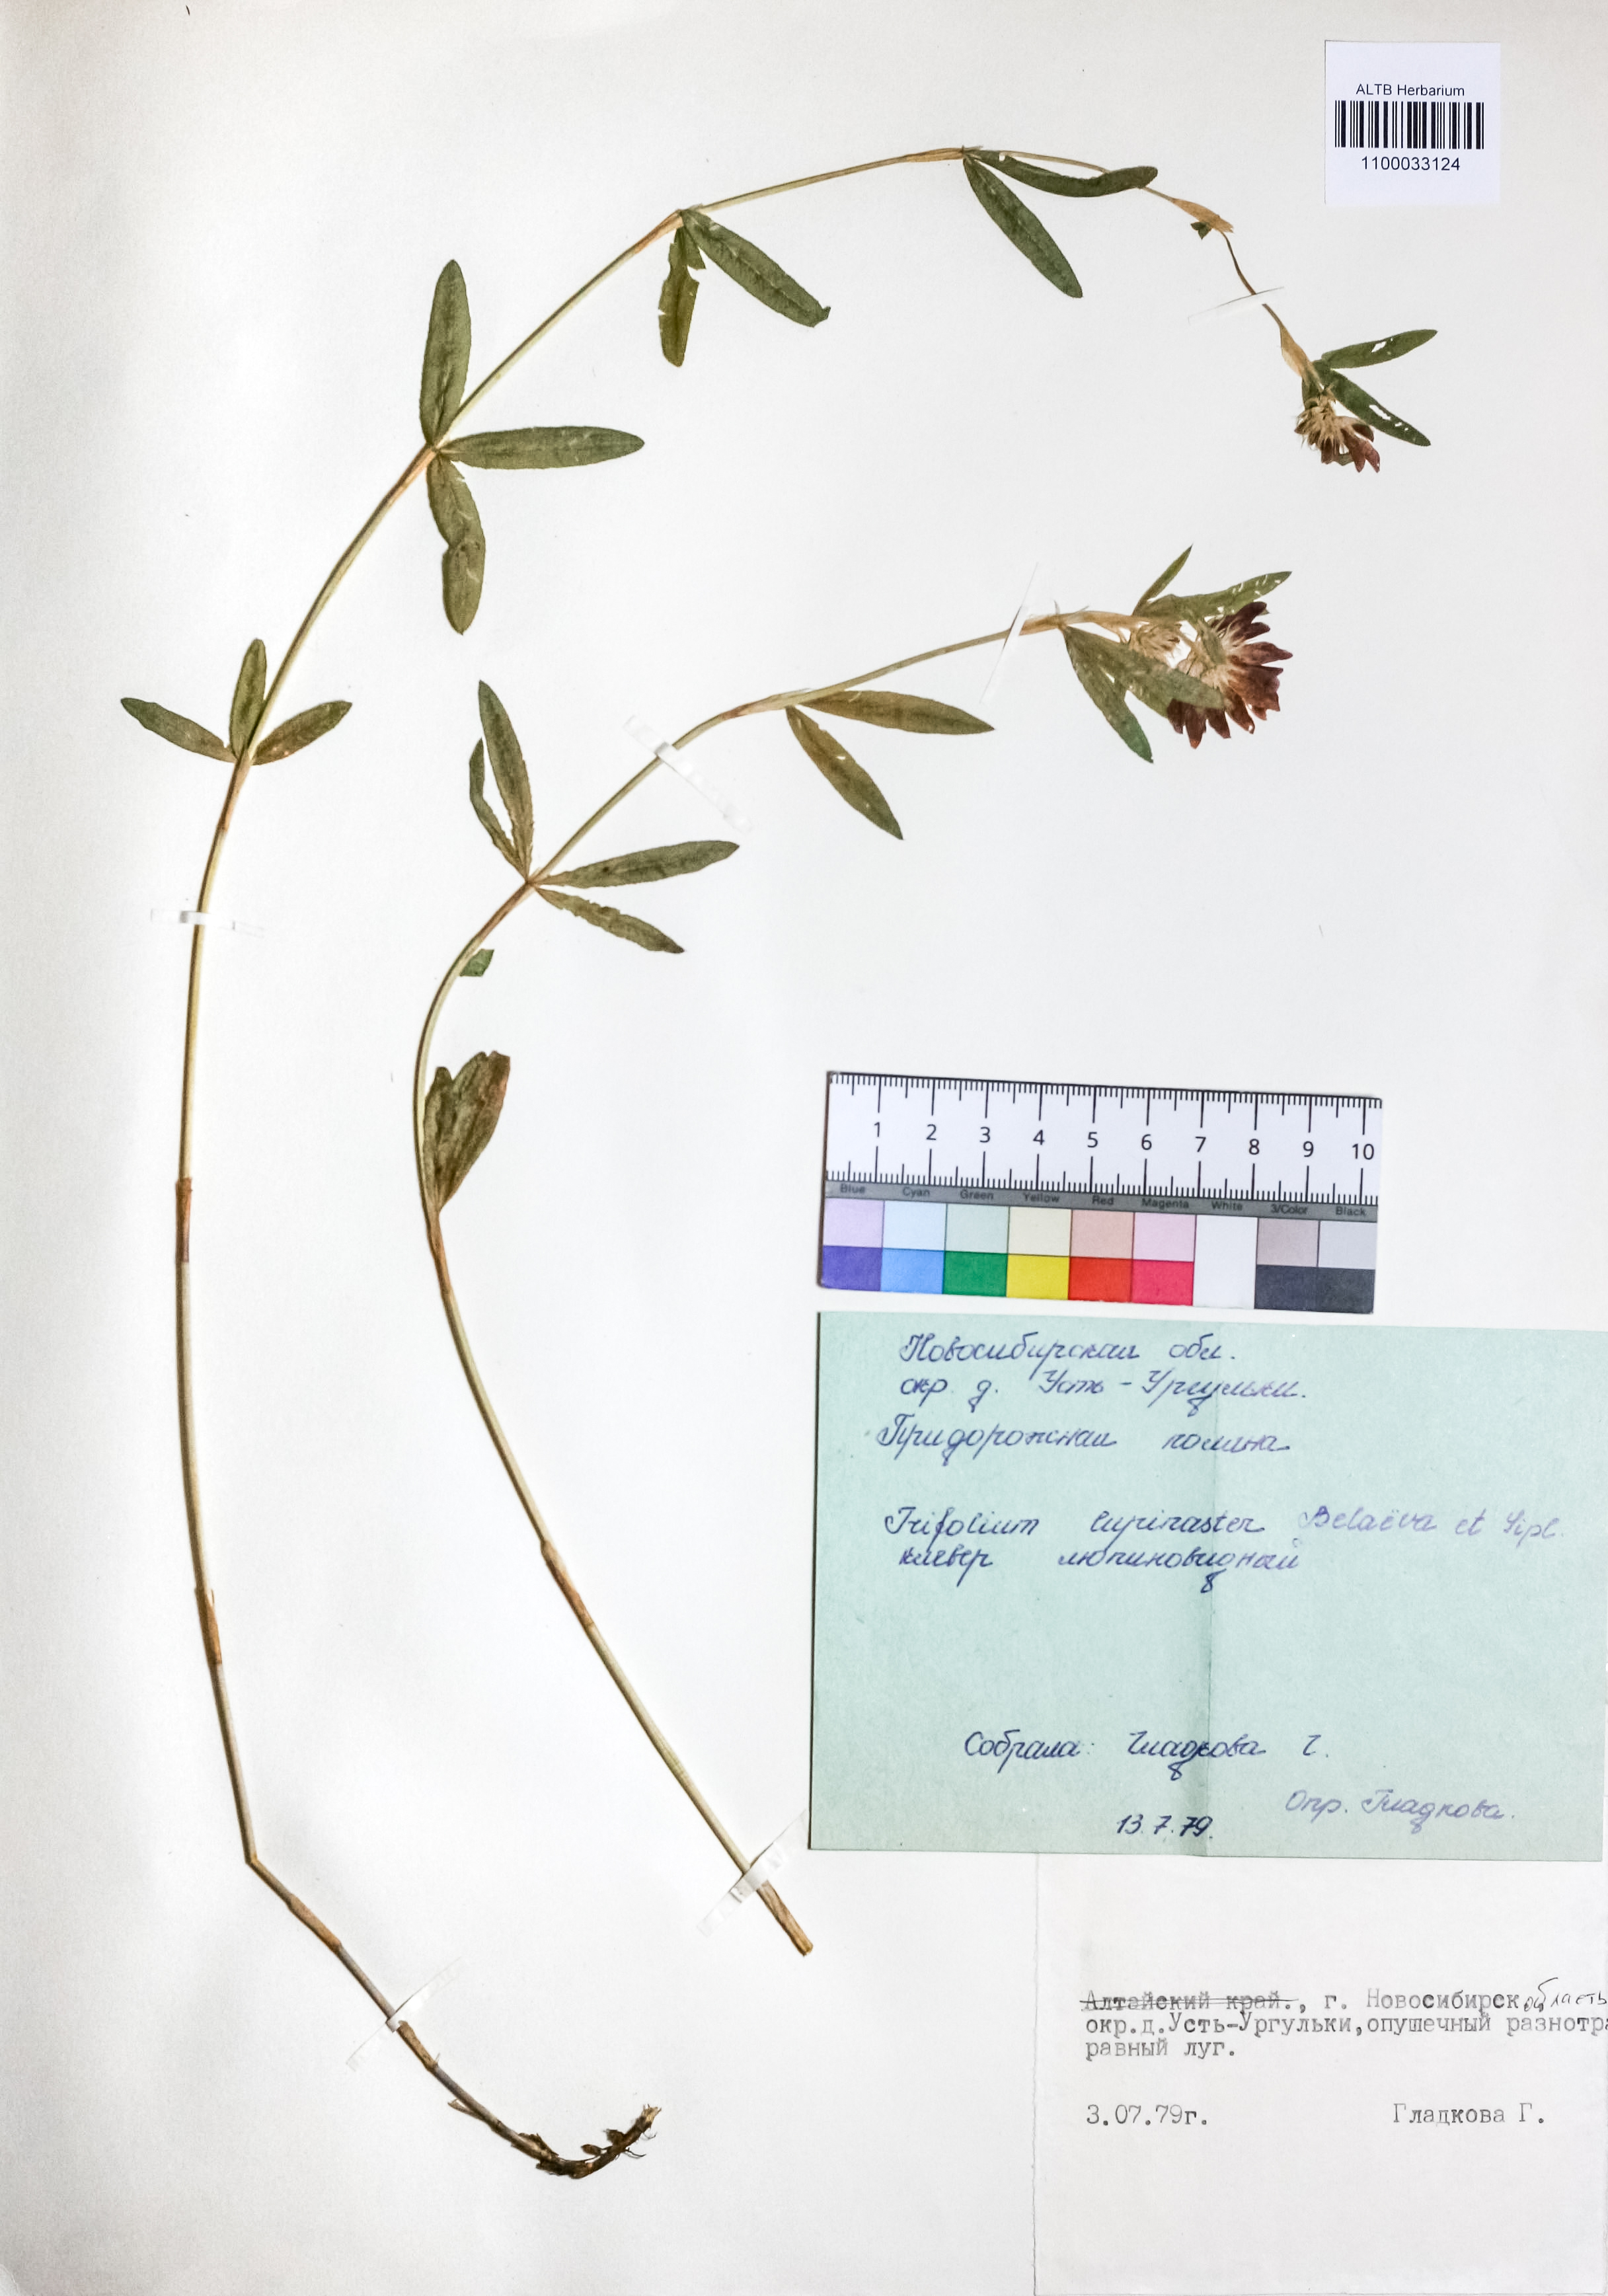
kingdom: Plantae
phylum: Tracheophyta
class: Magnoliopsida
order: Fabales
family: Fabaceae
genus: Trifolium
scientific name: Trifolium lupinaster
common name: Lupine clover
